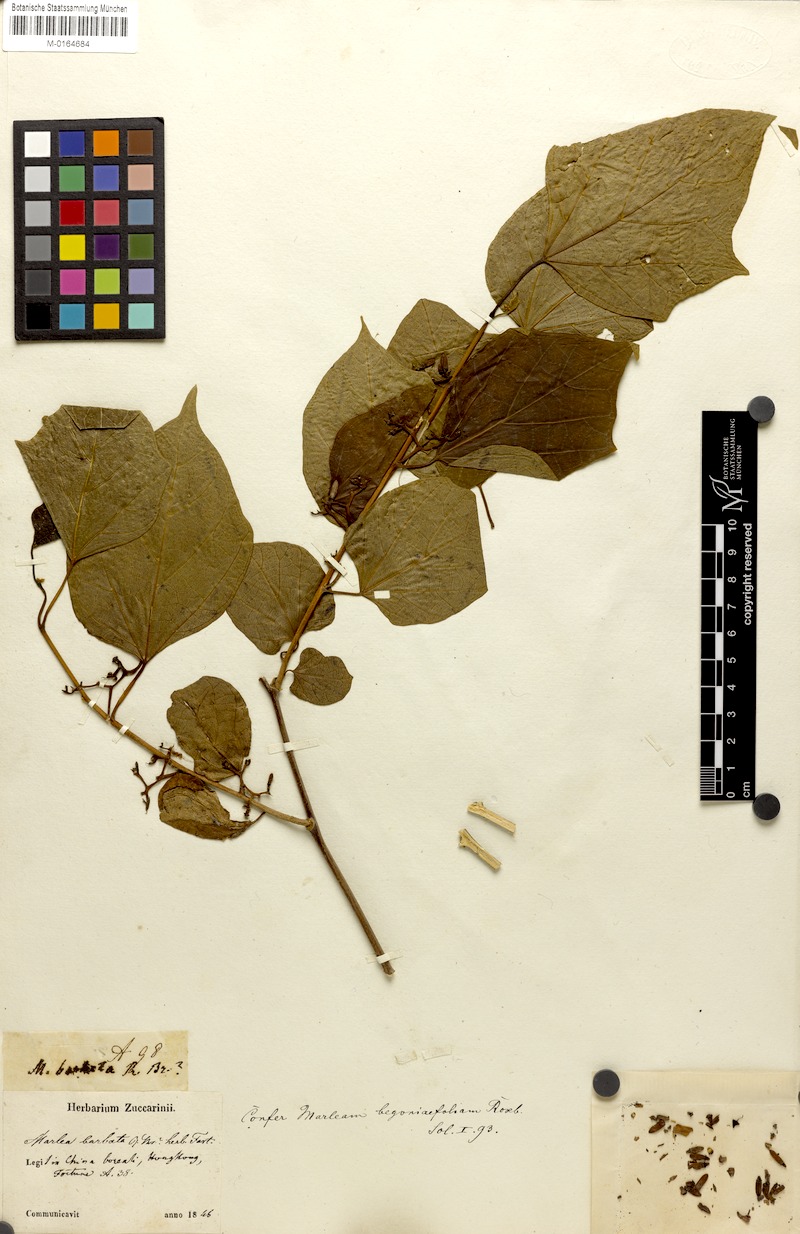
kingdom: Plantae
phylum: Tracheophyta
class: Magnoliopsida
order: Cornales
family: Cornaceae
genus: Alangium
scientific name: Alangium barbatum
